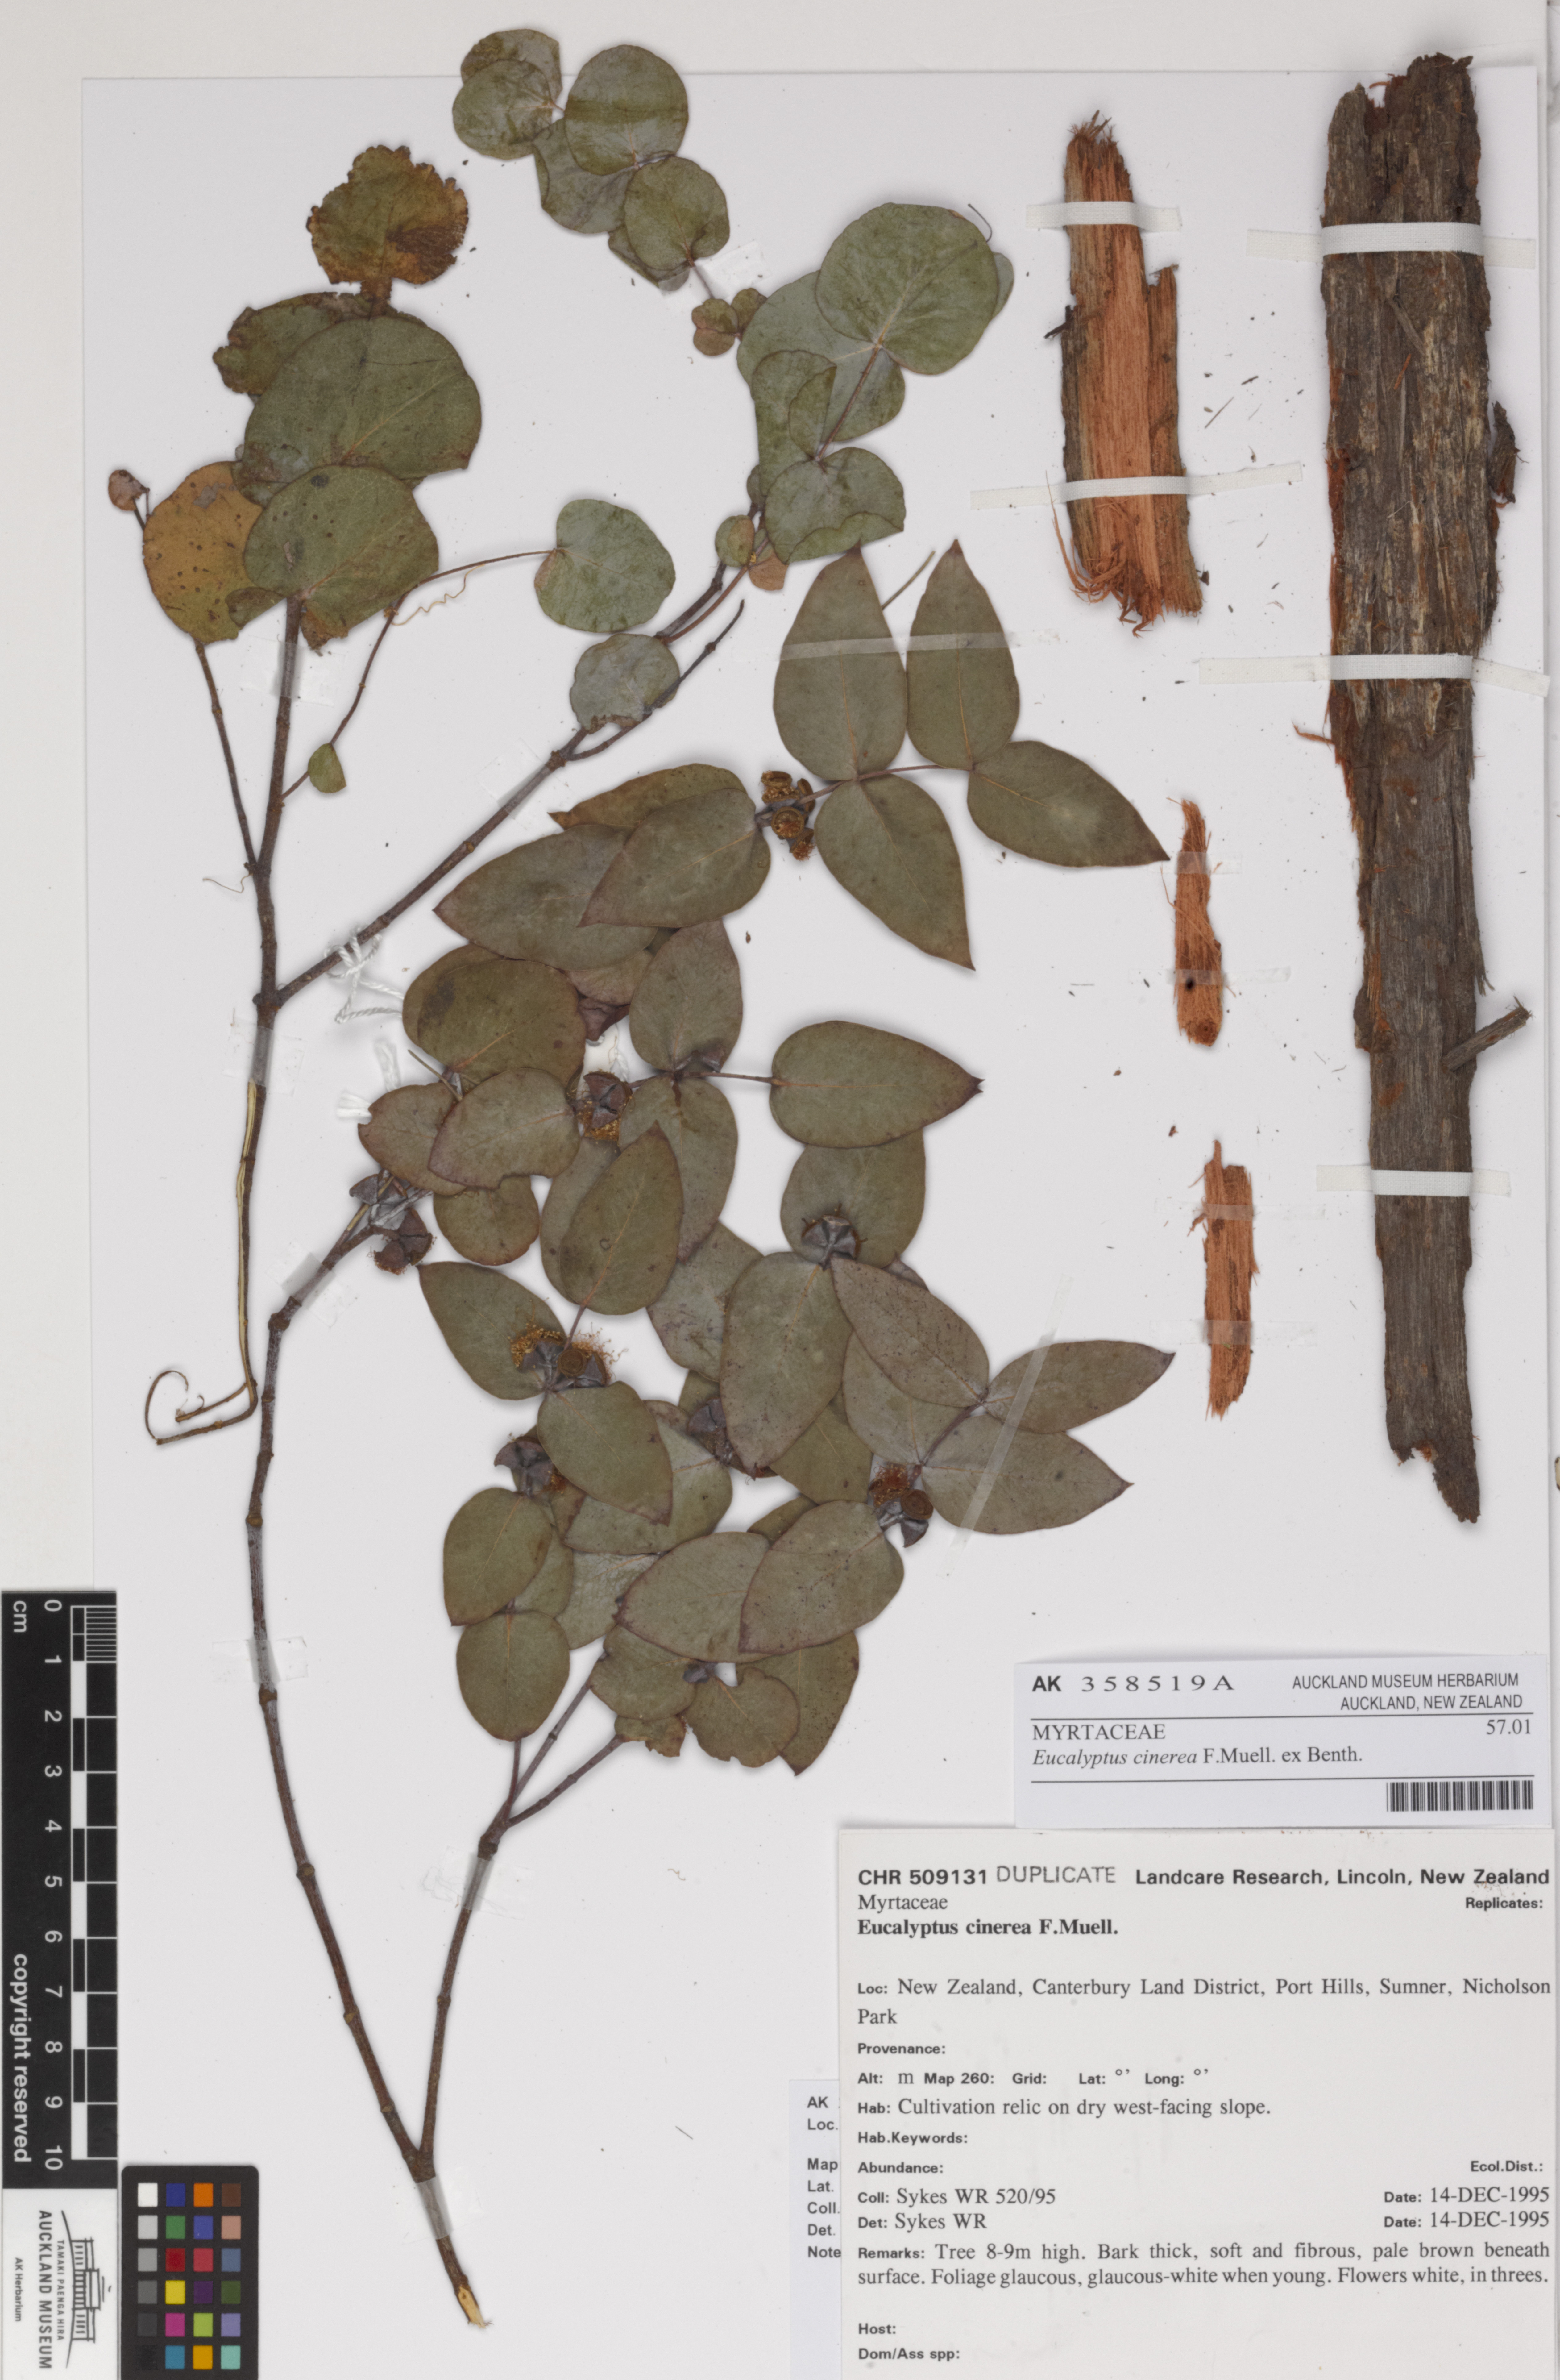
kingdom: Plantae
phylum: Tracheophyta
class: Magnoliopsida
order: Myrtales
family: Myrtaceae
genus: Eucalyptus
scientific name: Eucalyptus cinerea
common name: Argyle apple
